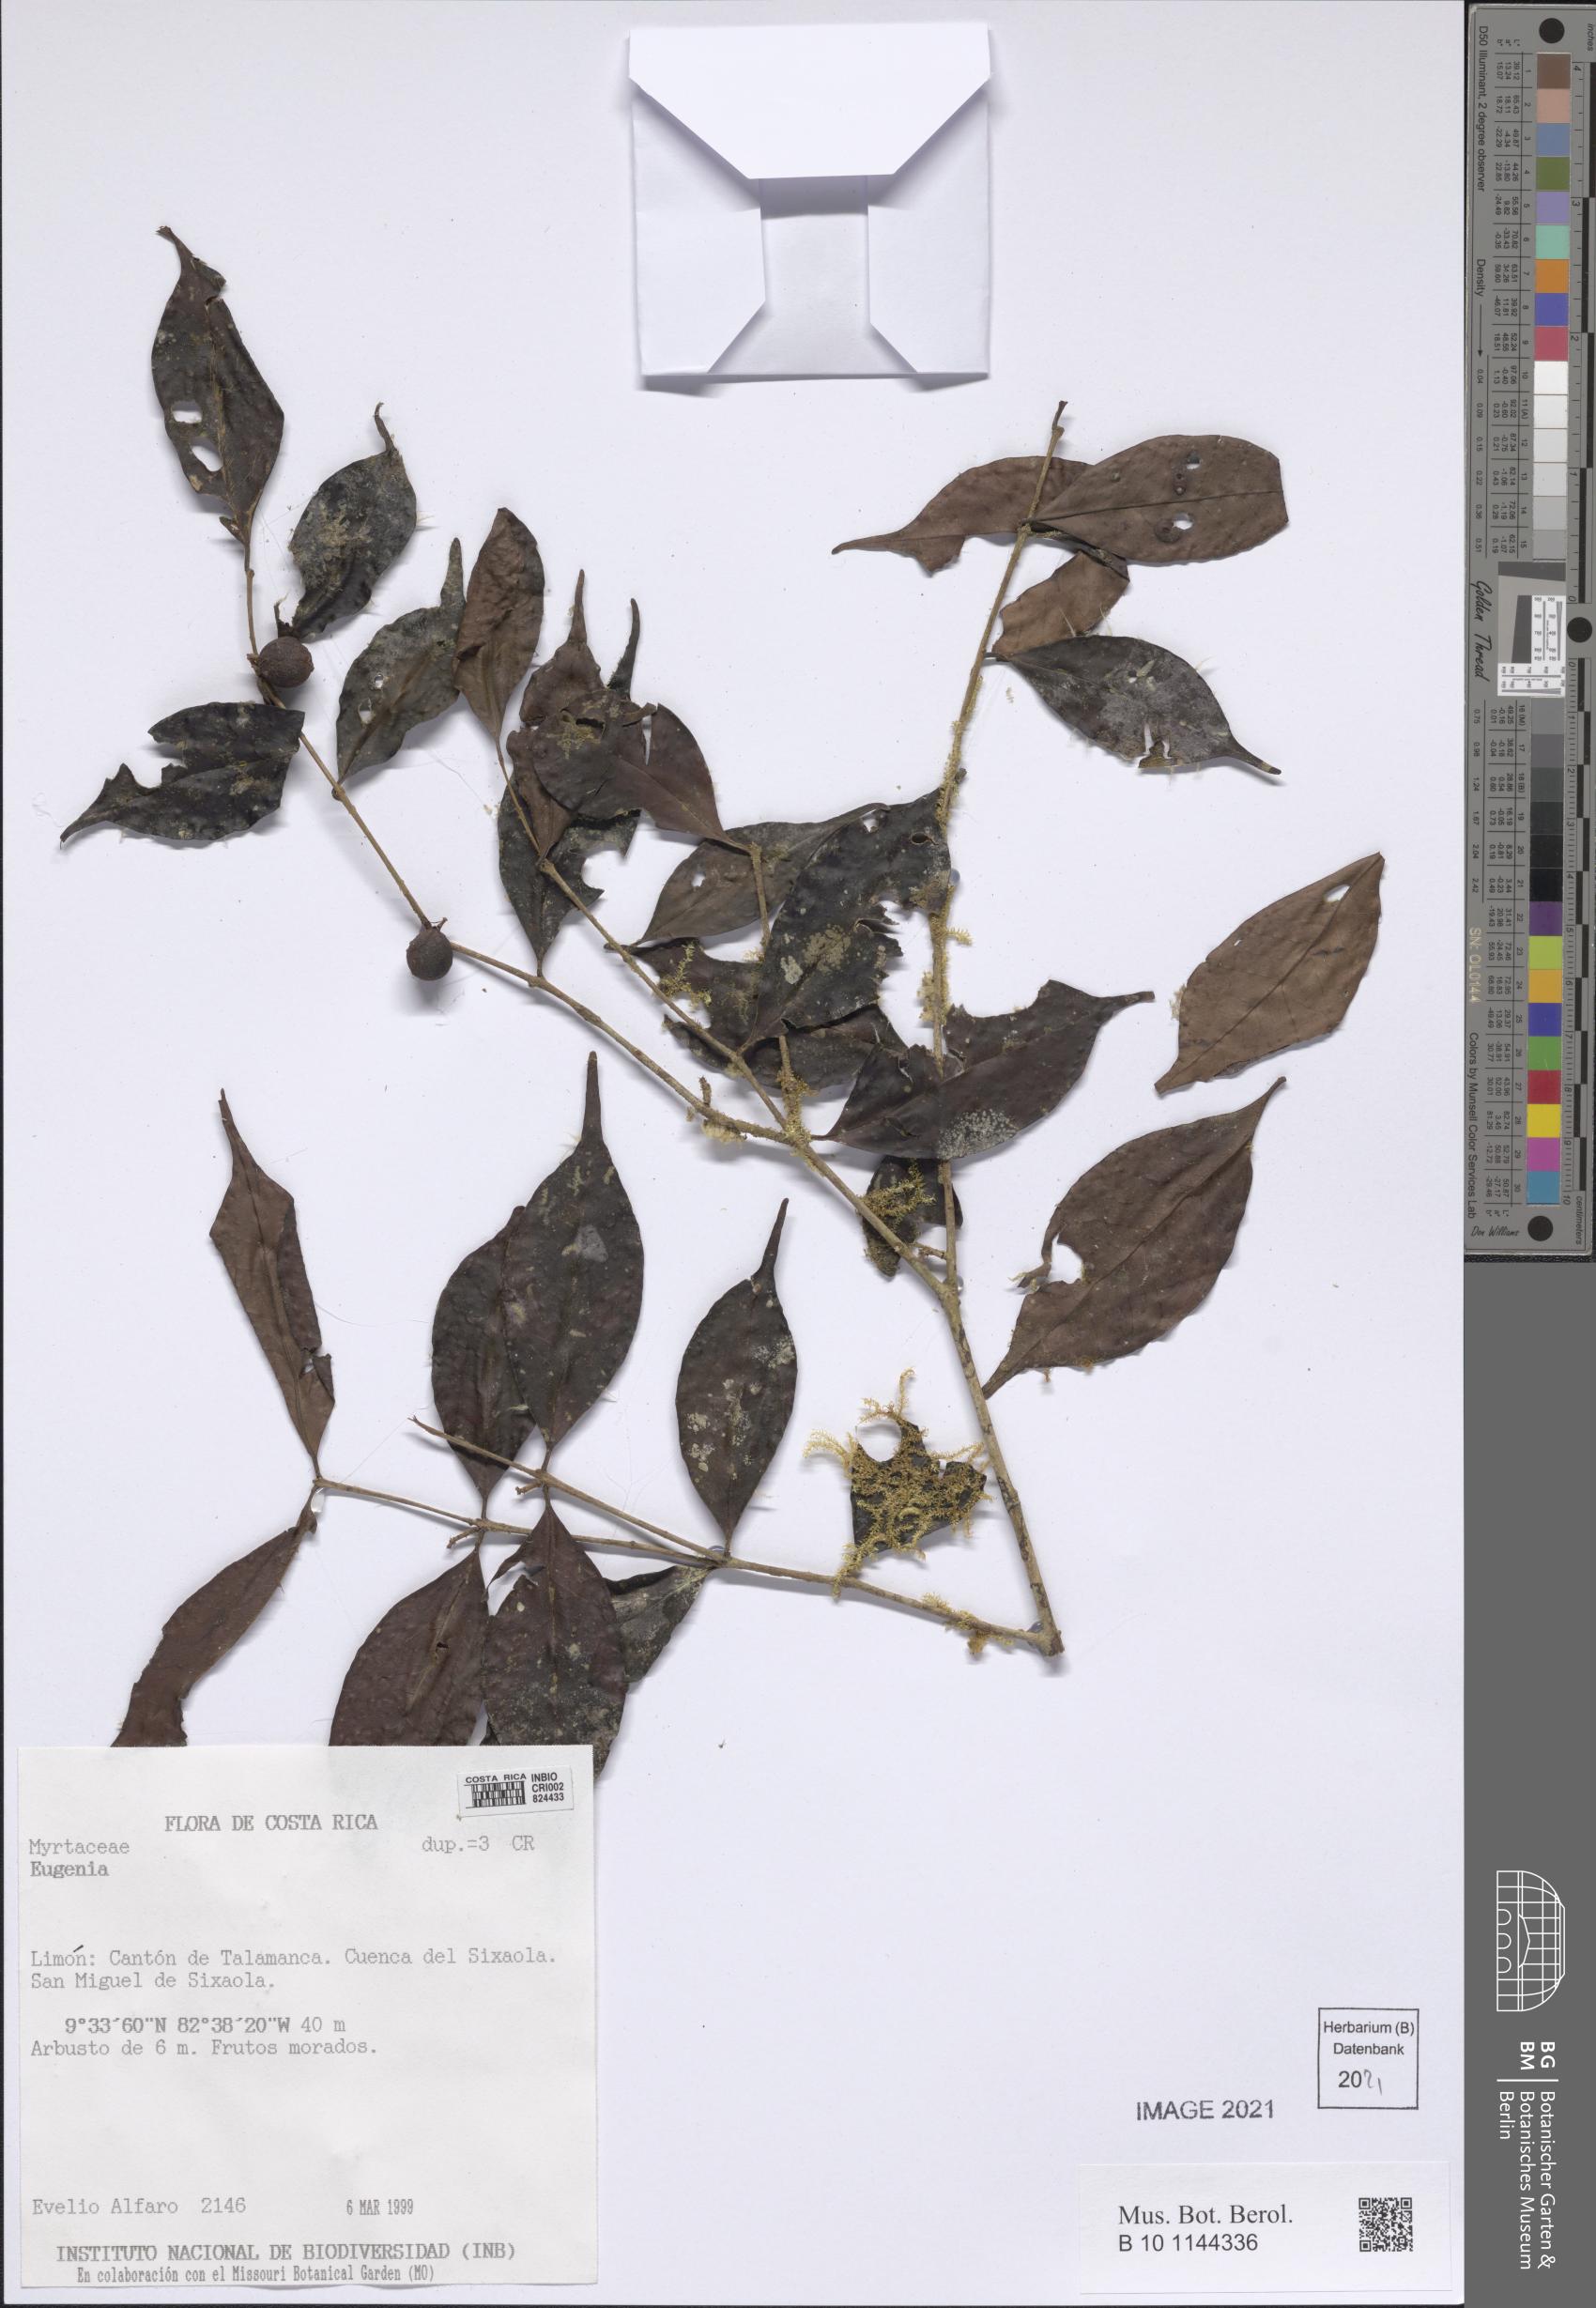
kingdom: Plantae
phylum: Tracheophyta
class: Magnoliopsida
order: Myrtales
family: Myrtaceae
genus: Eugenia
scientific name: Eugenia
